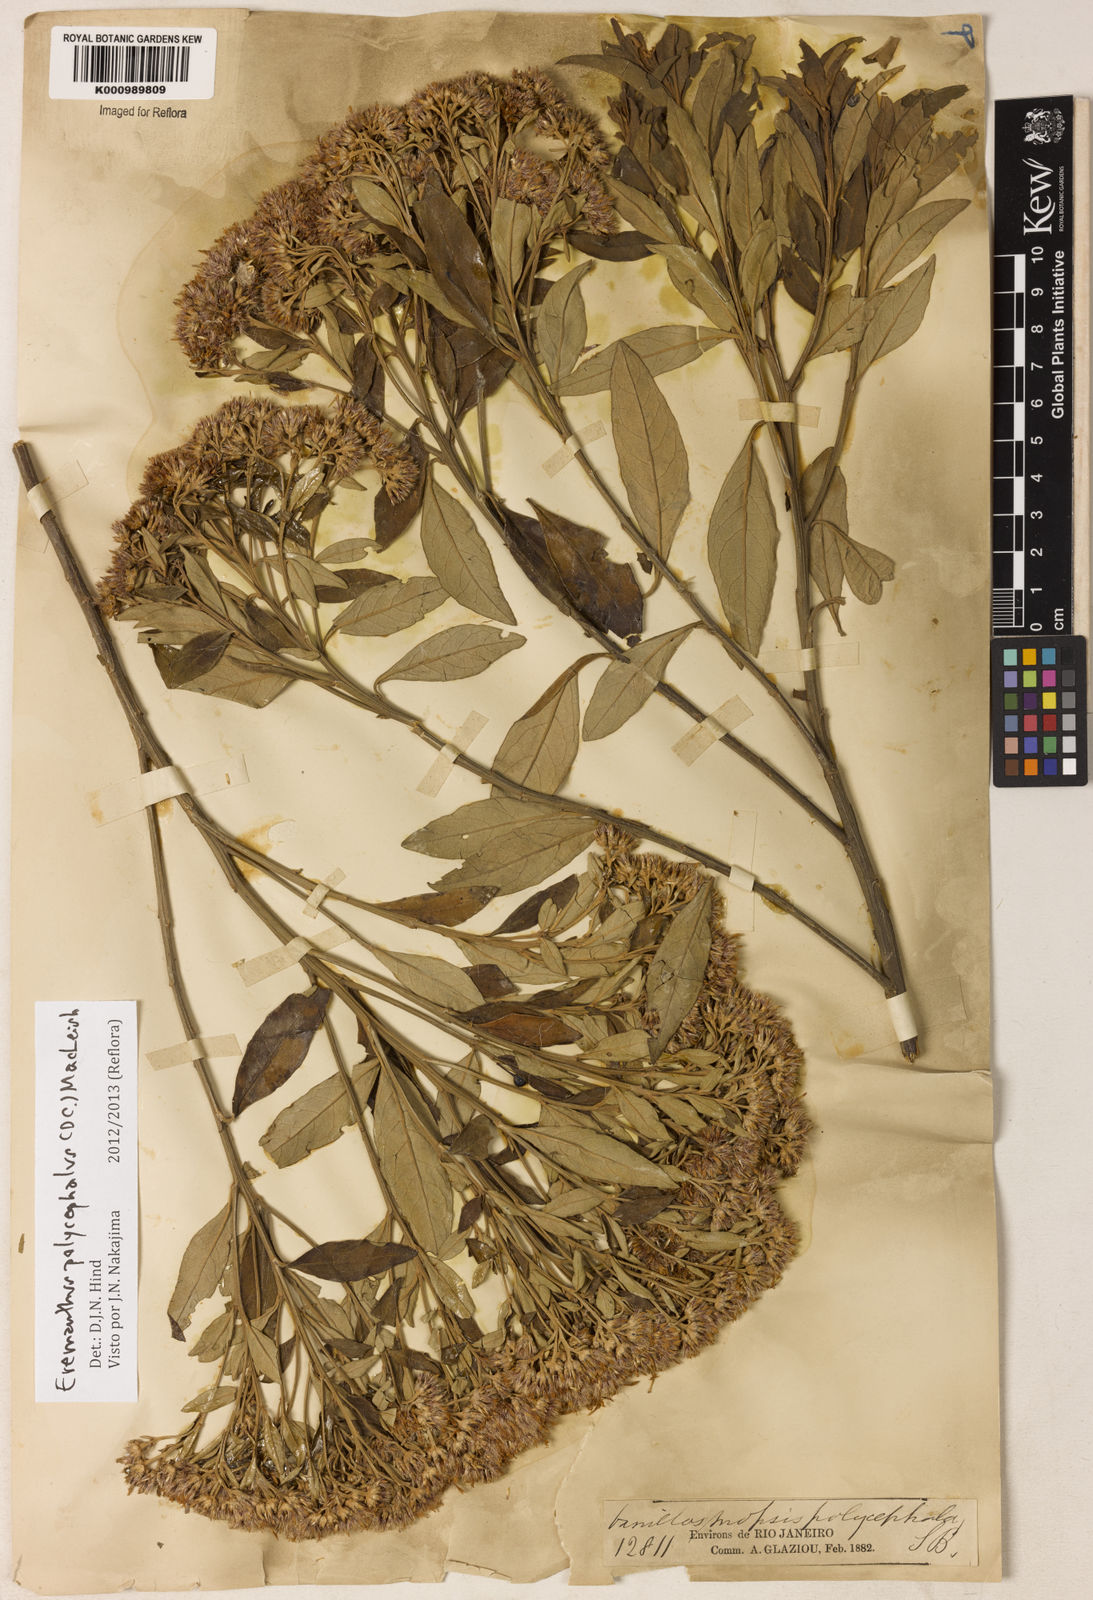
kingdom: Plantae
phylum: Tracheophyta
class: Magnoliopsida
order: Asterales
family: Asteraceae
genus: Eremanthus
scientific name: Eremanthus polycephalus
